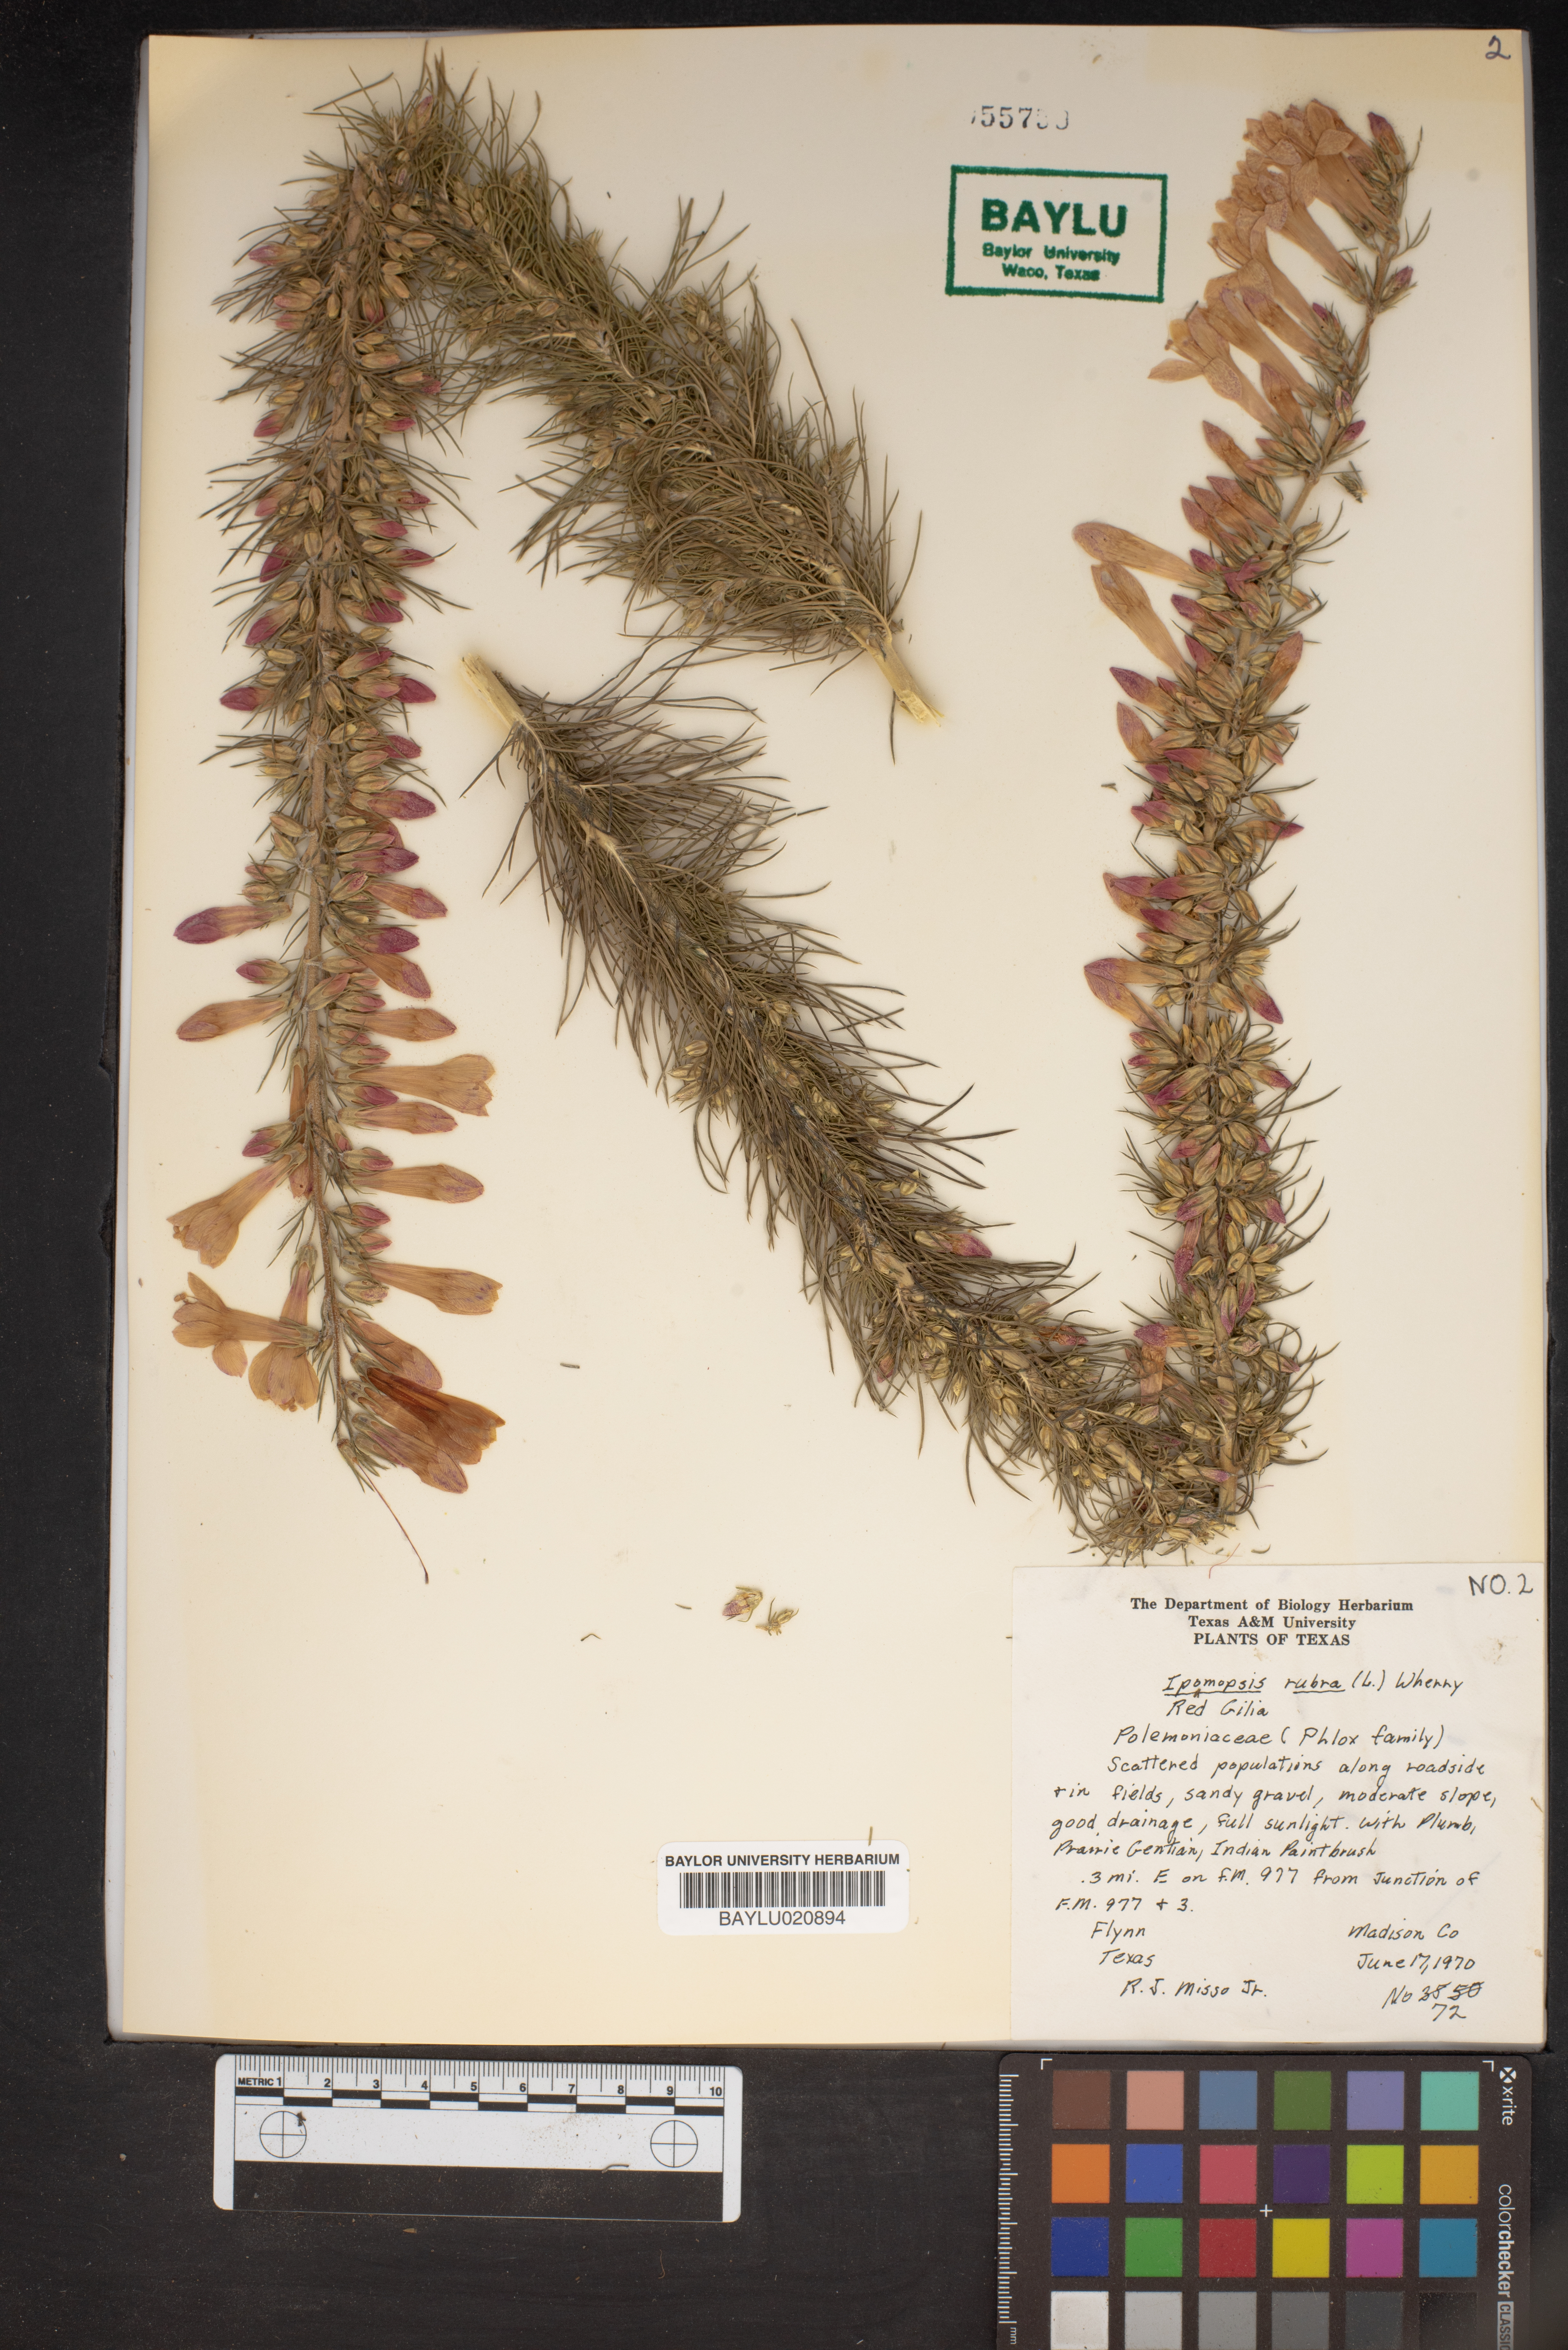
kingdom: Plantae
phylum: Tracheophyta
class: Magnoliopsida
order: Ericales
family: Polemoniaceae
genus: Ipomopsis
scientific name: Ipomopsis rubra
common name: Skyrocket
